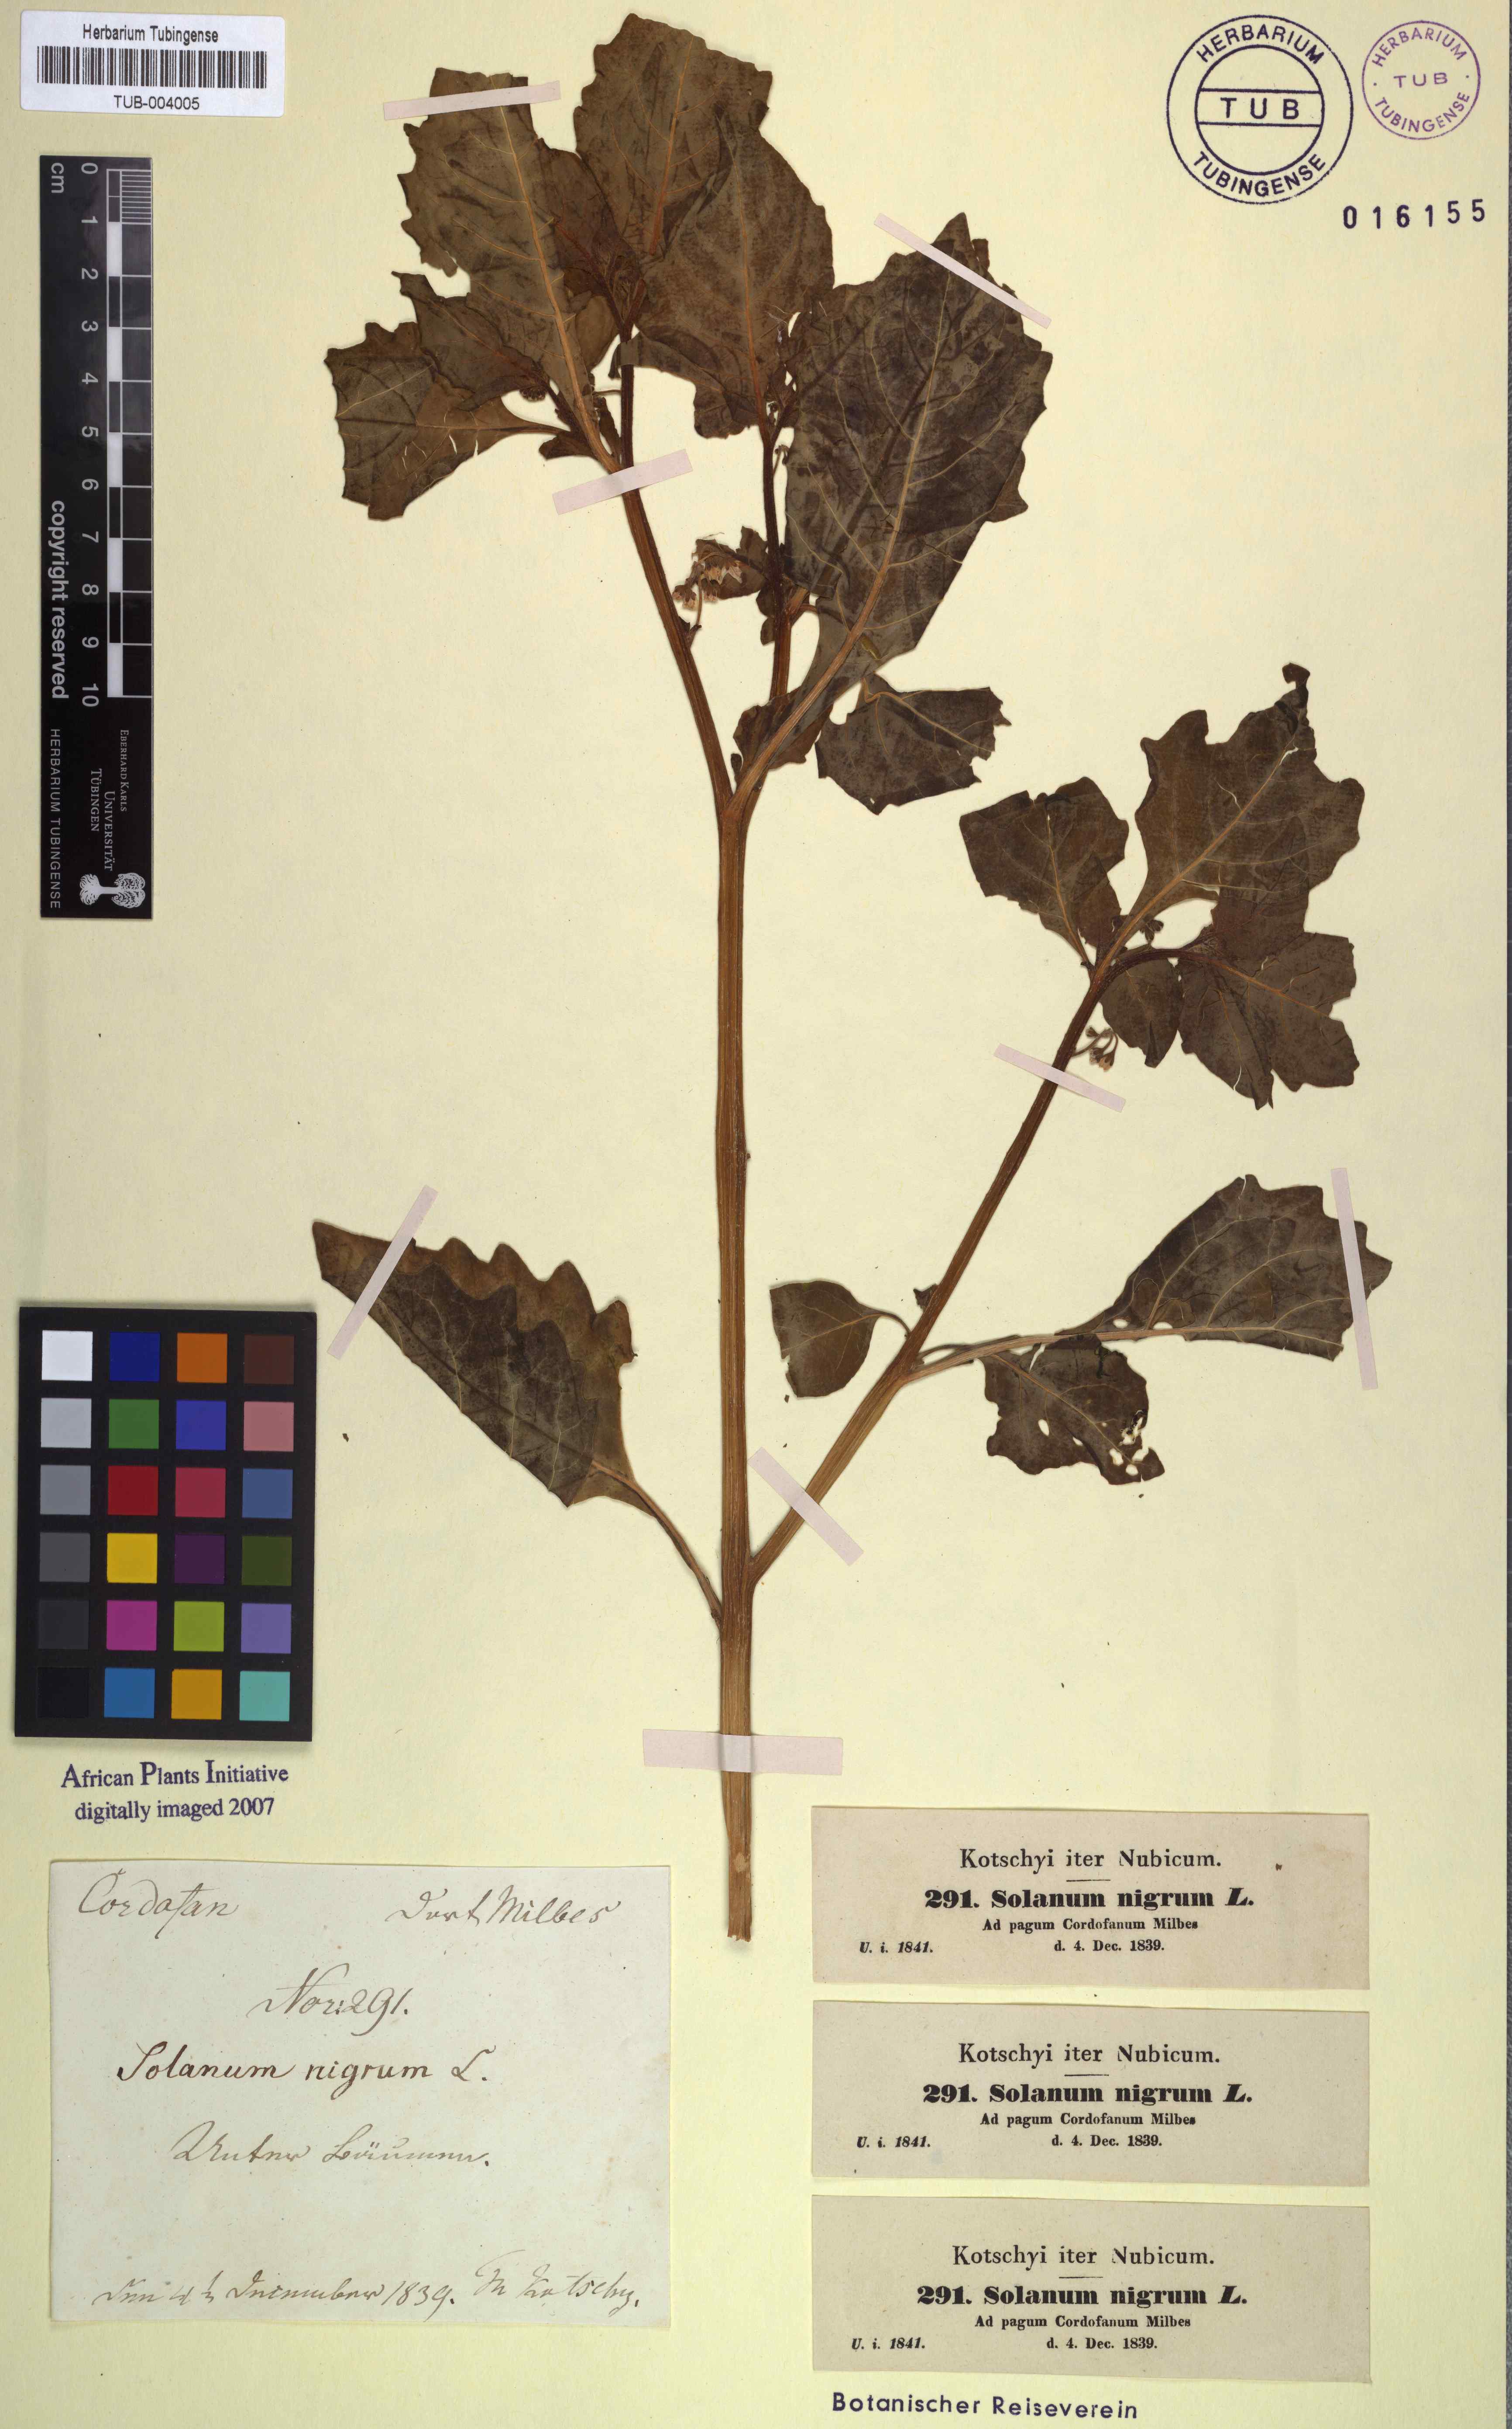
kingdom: Plantae
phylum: Tracheophyta
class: Magnoliopsida
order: Solanales
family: Solanaceae
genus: Solanum
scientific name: Solanum nigrum
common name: Black nightshade
